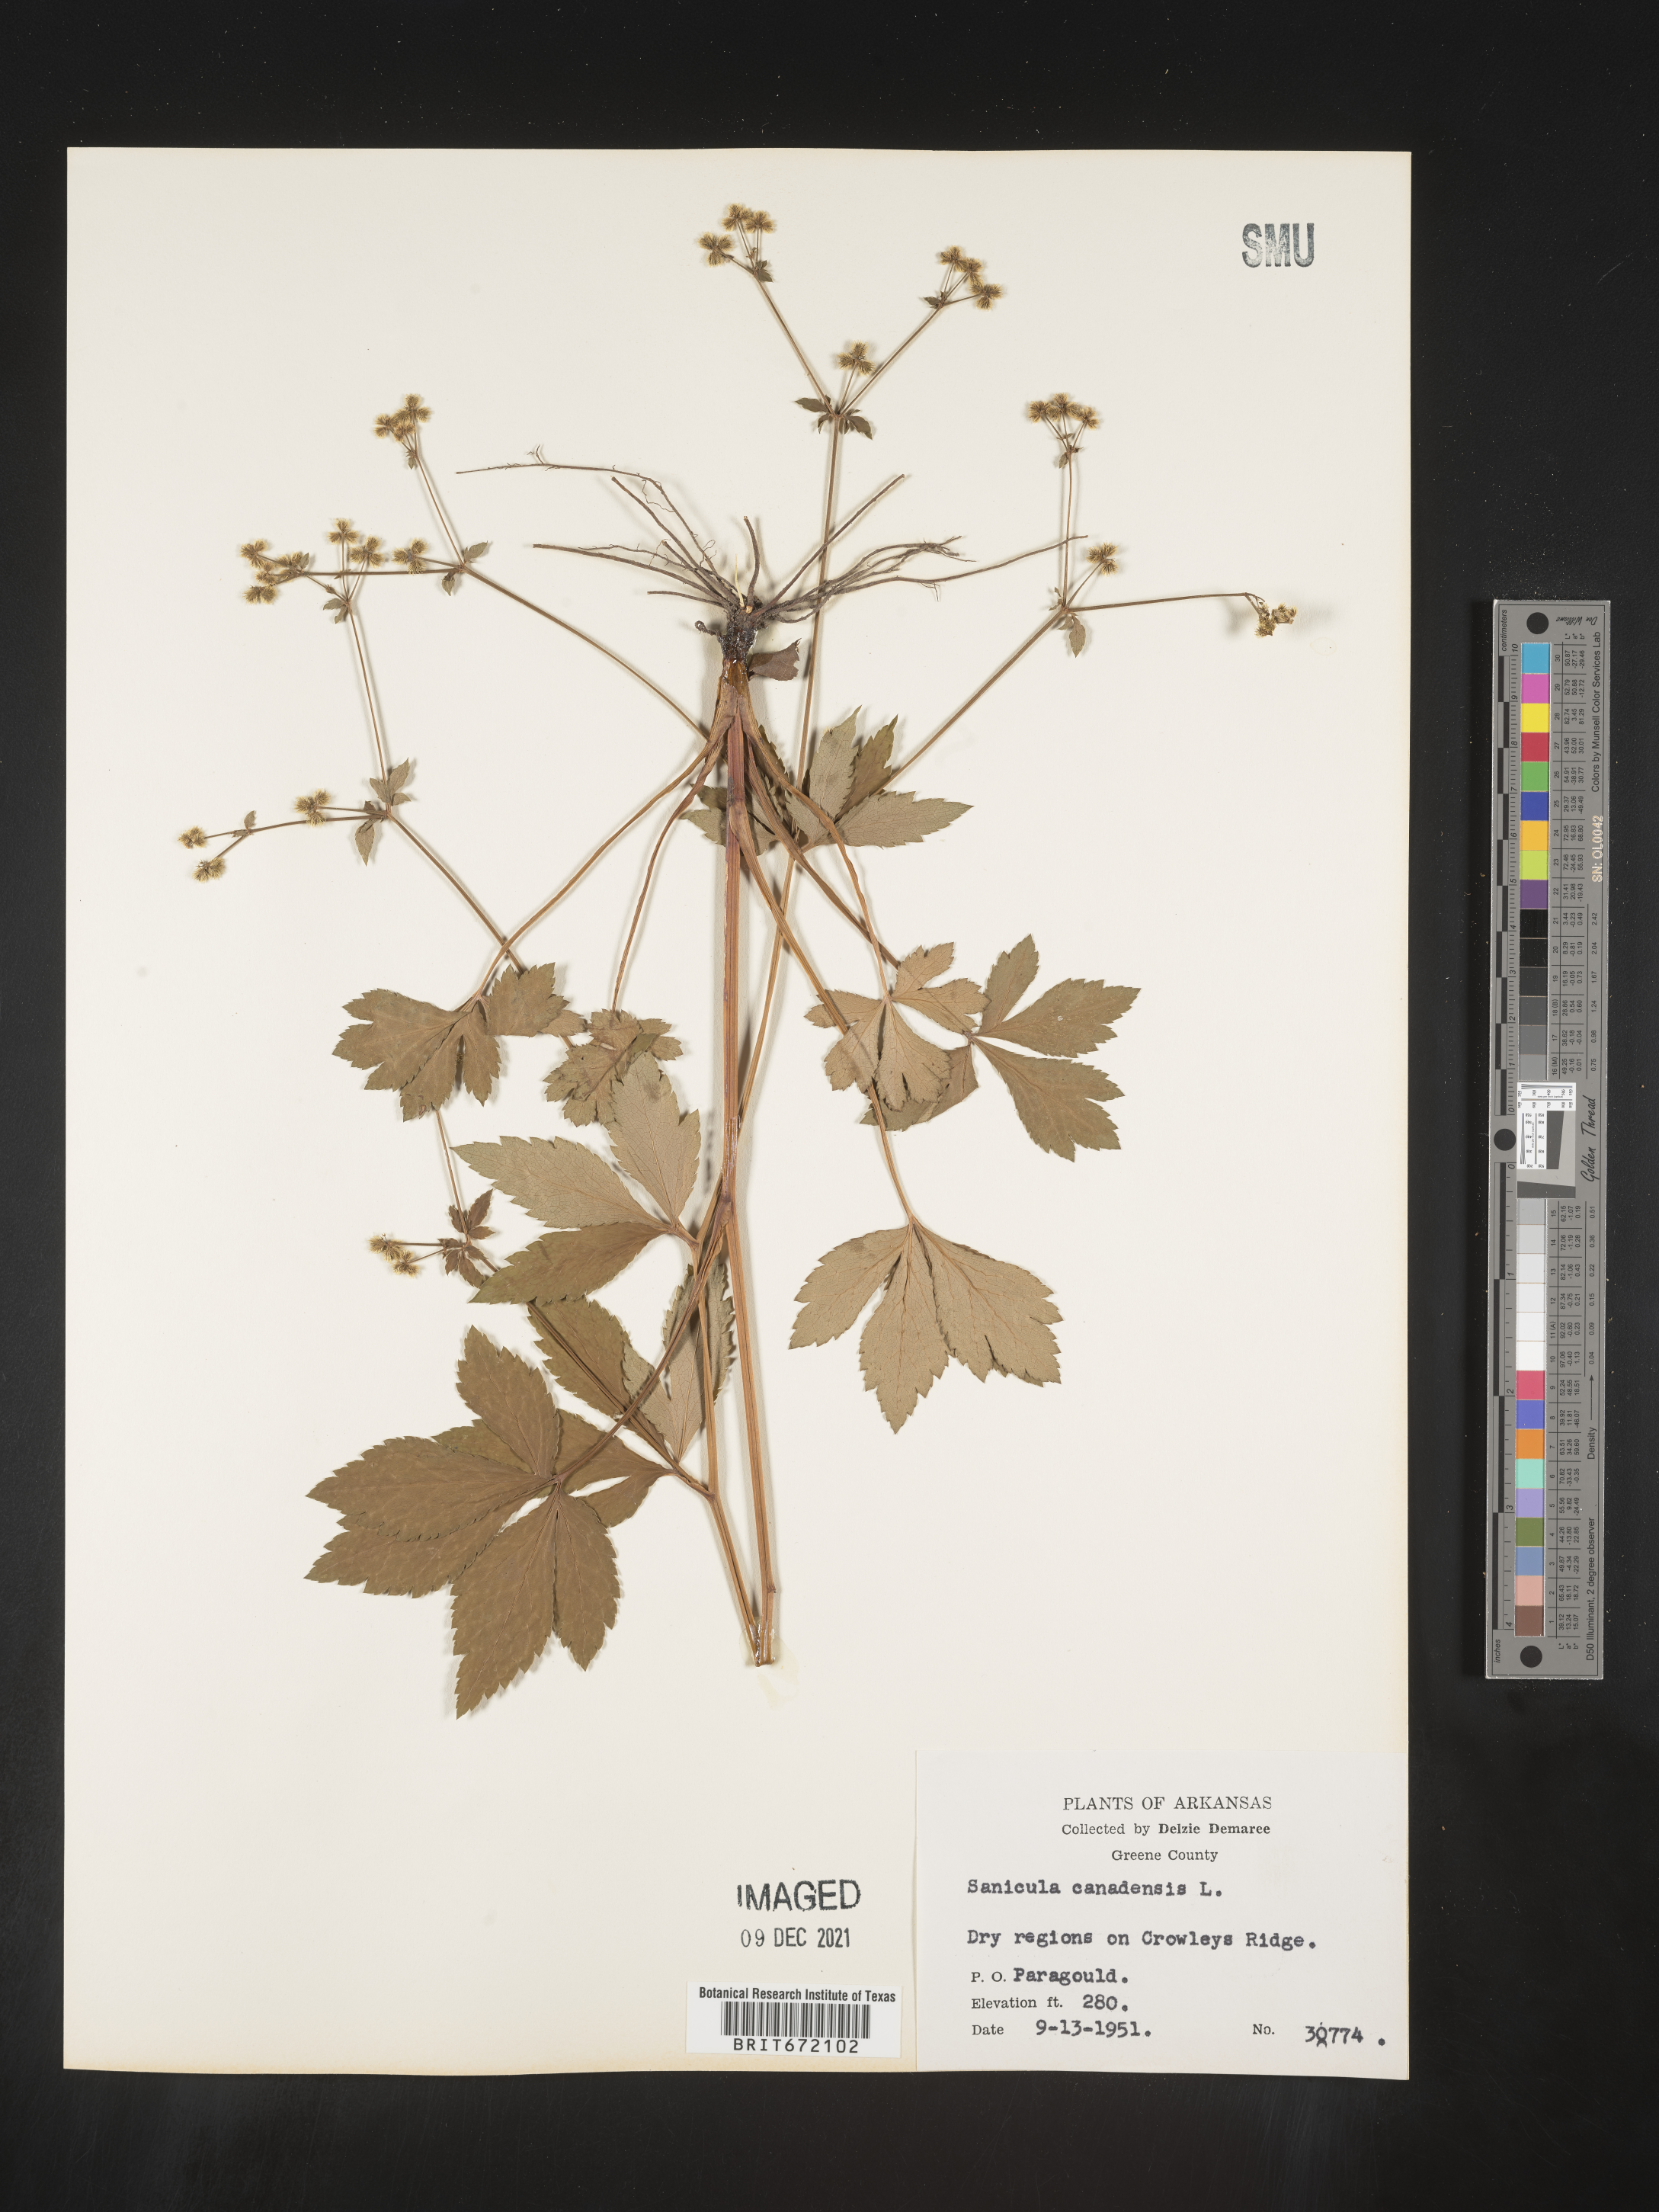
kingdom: Plantae
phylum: Tracheophyta
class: Magnoliopsida
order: Apiales
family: Apiaceae
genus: Sanicula
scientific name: Sanicula canadensis
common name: Canada sanicle
